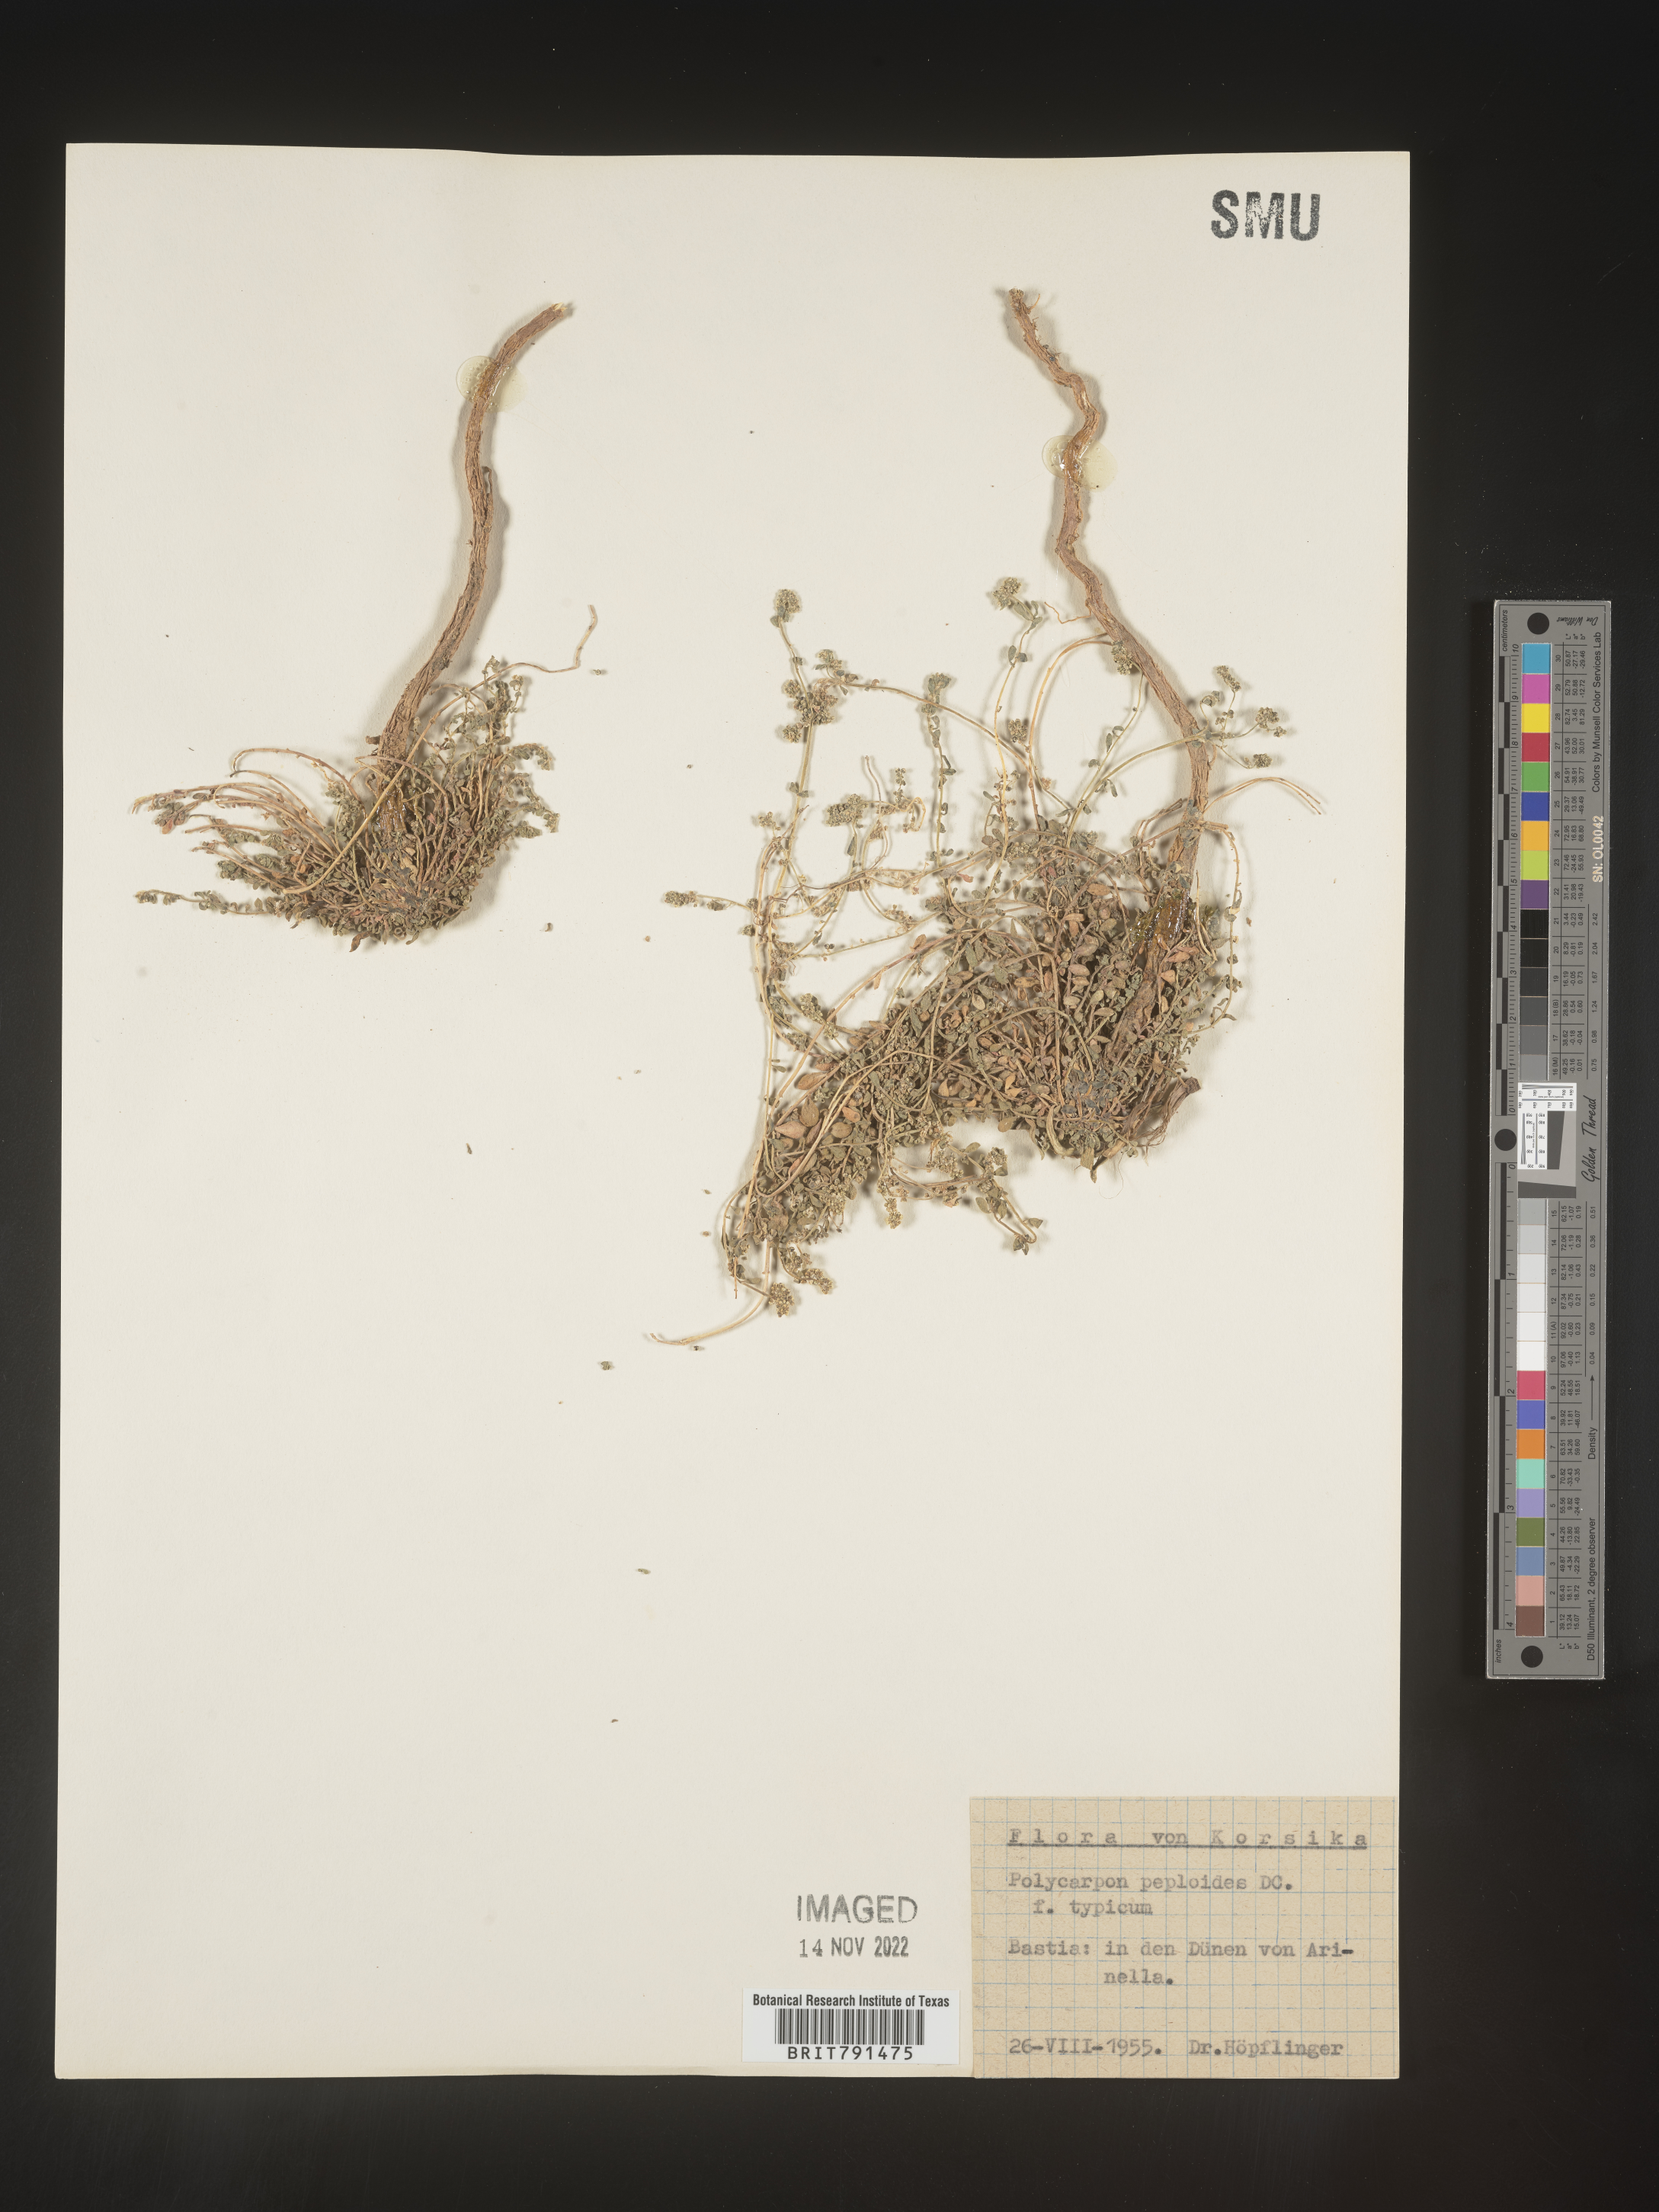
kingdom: Plantae
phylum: Tracheophyta
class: Magnoliopsida
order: Caryophyllales
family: Caryophyllaceae
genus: Polycarpon
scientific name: Polycarpon
